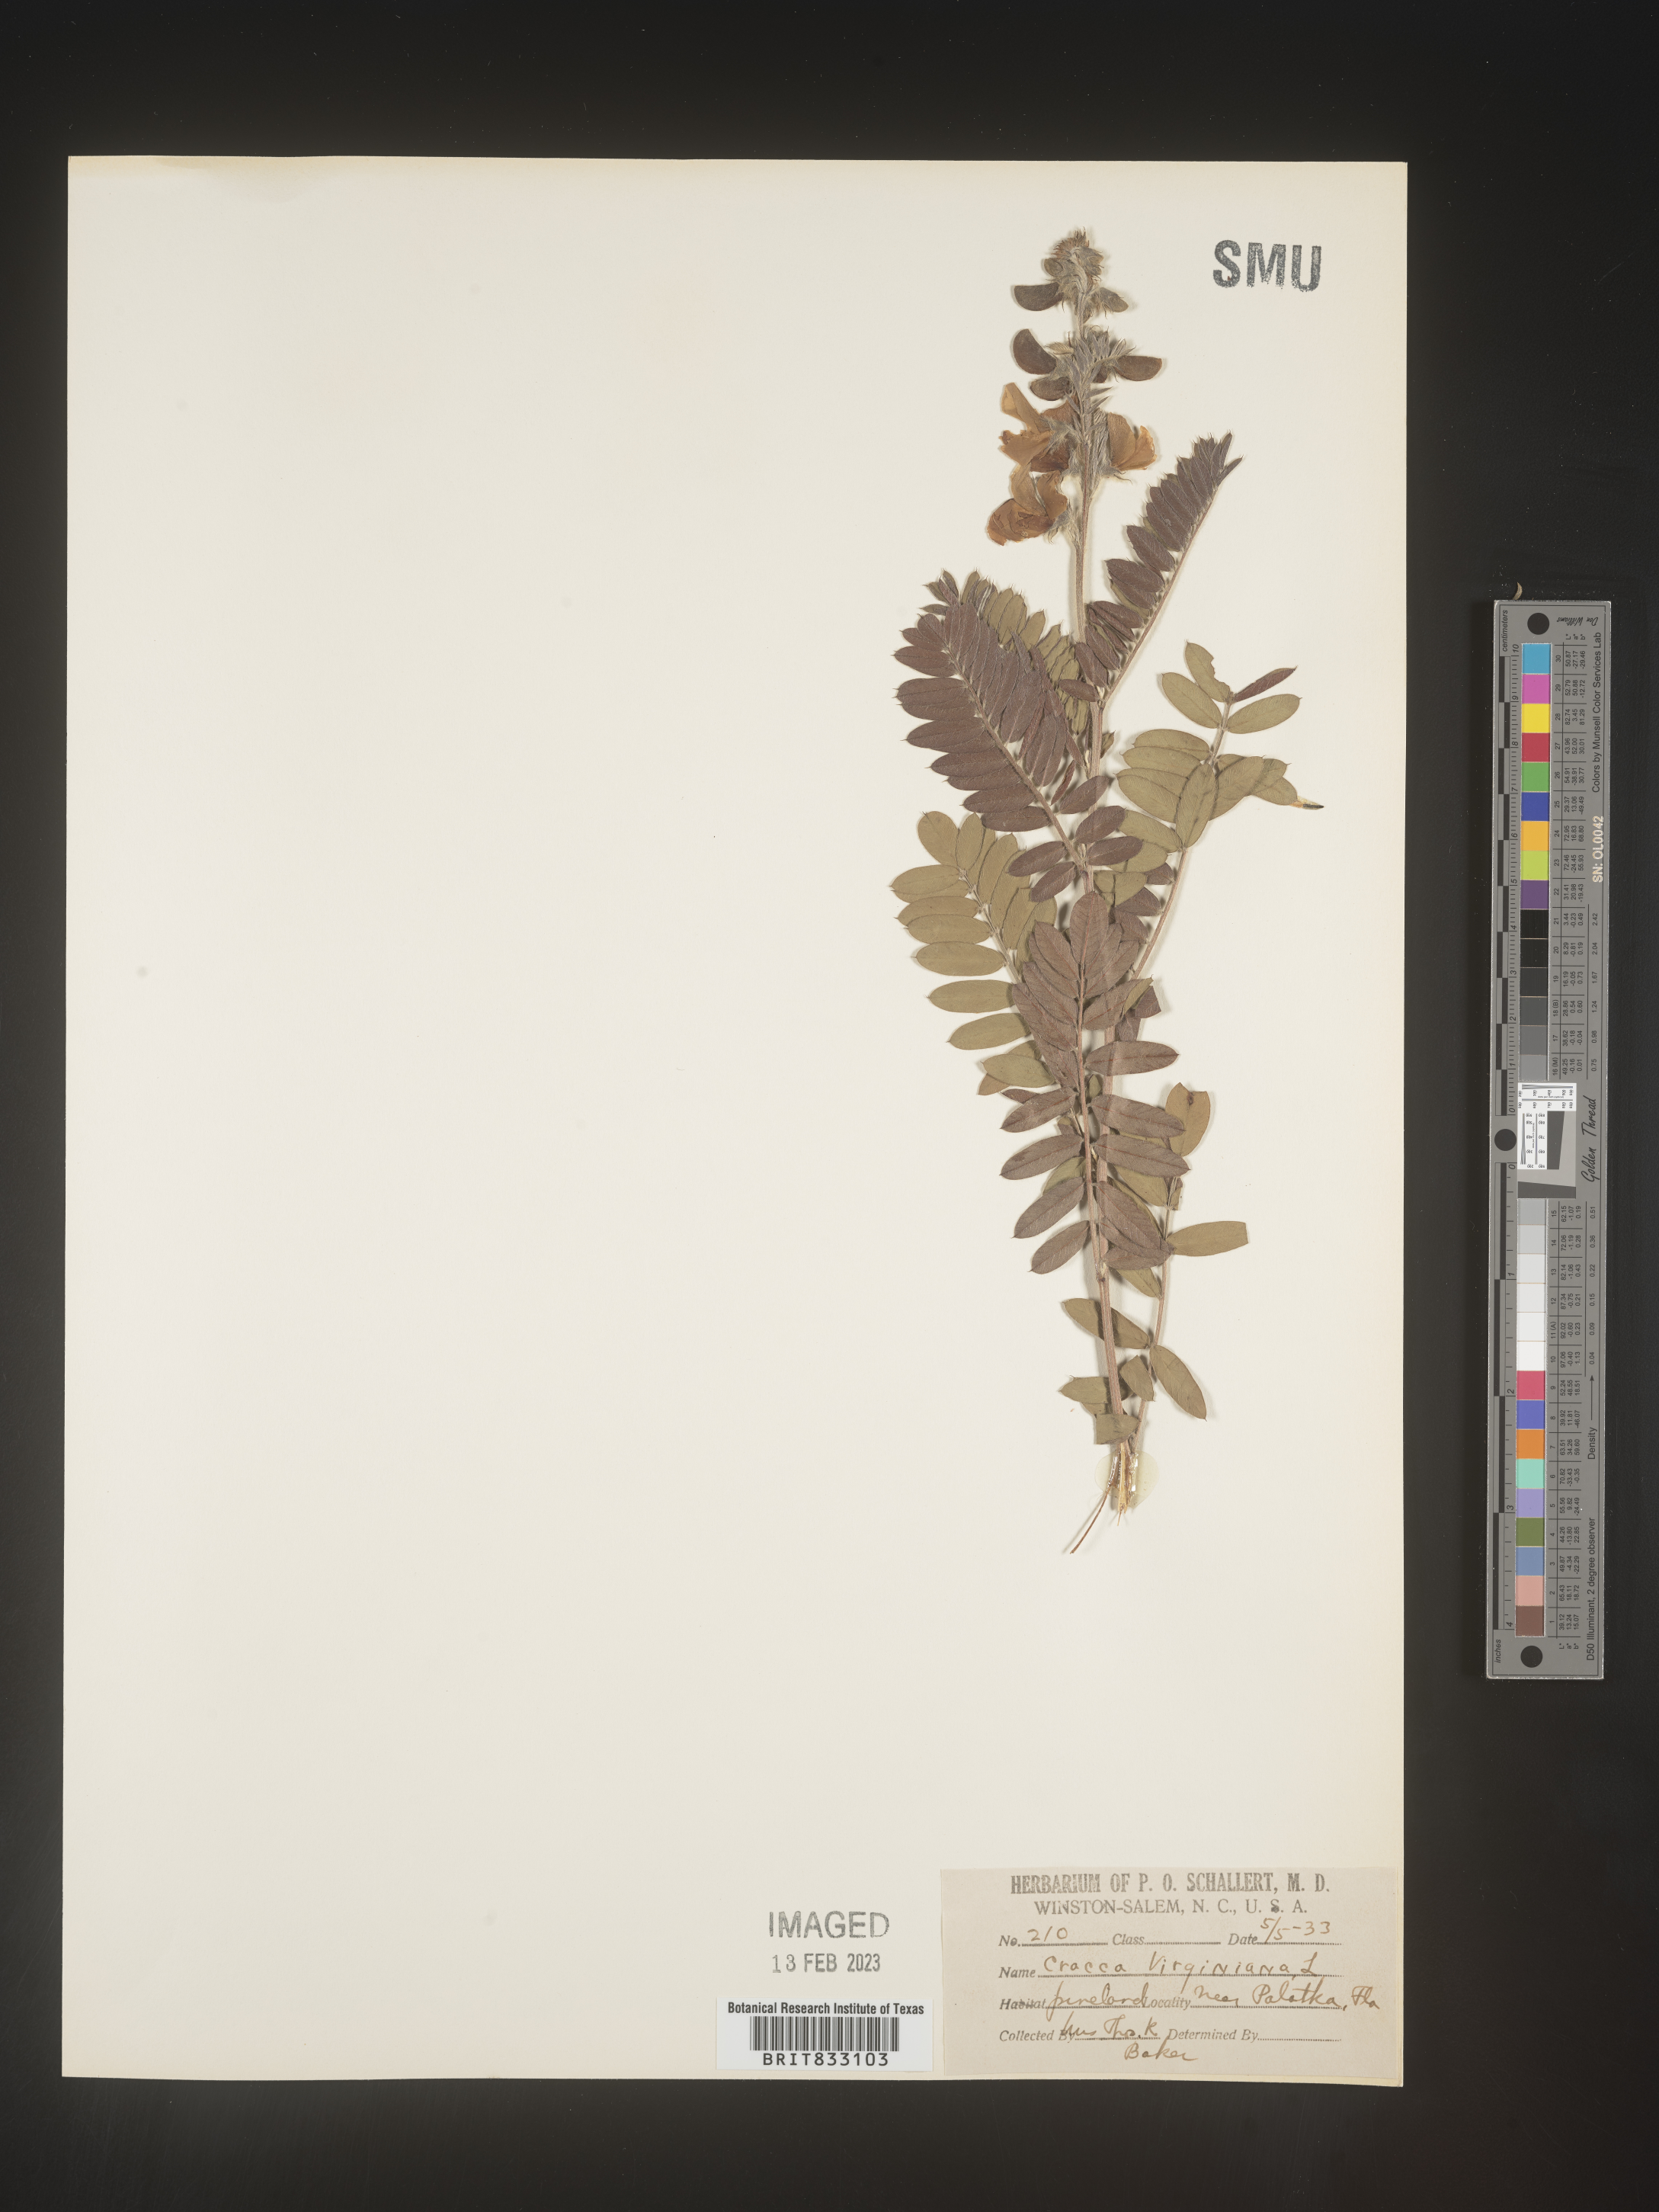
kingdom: Plantae
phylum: Tracheophyta
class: Magnoliopsida
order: Fabales
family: Fabaceae
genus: Tephrosia
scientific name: Tephrosia virginiana
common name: Rabbit-pea
